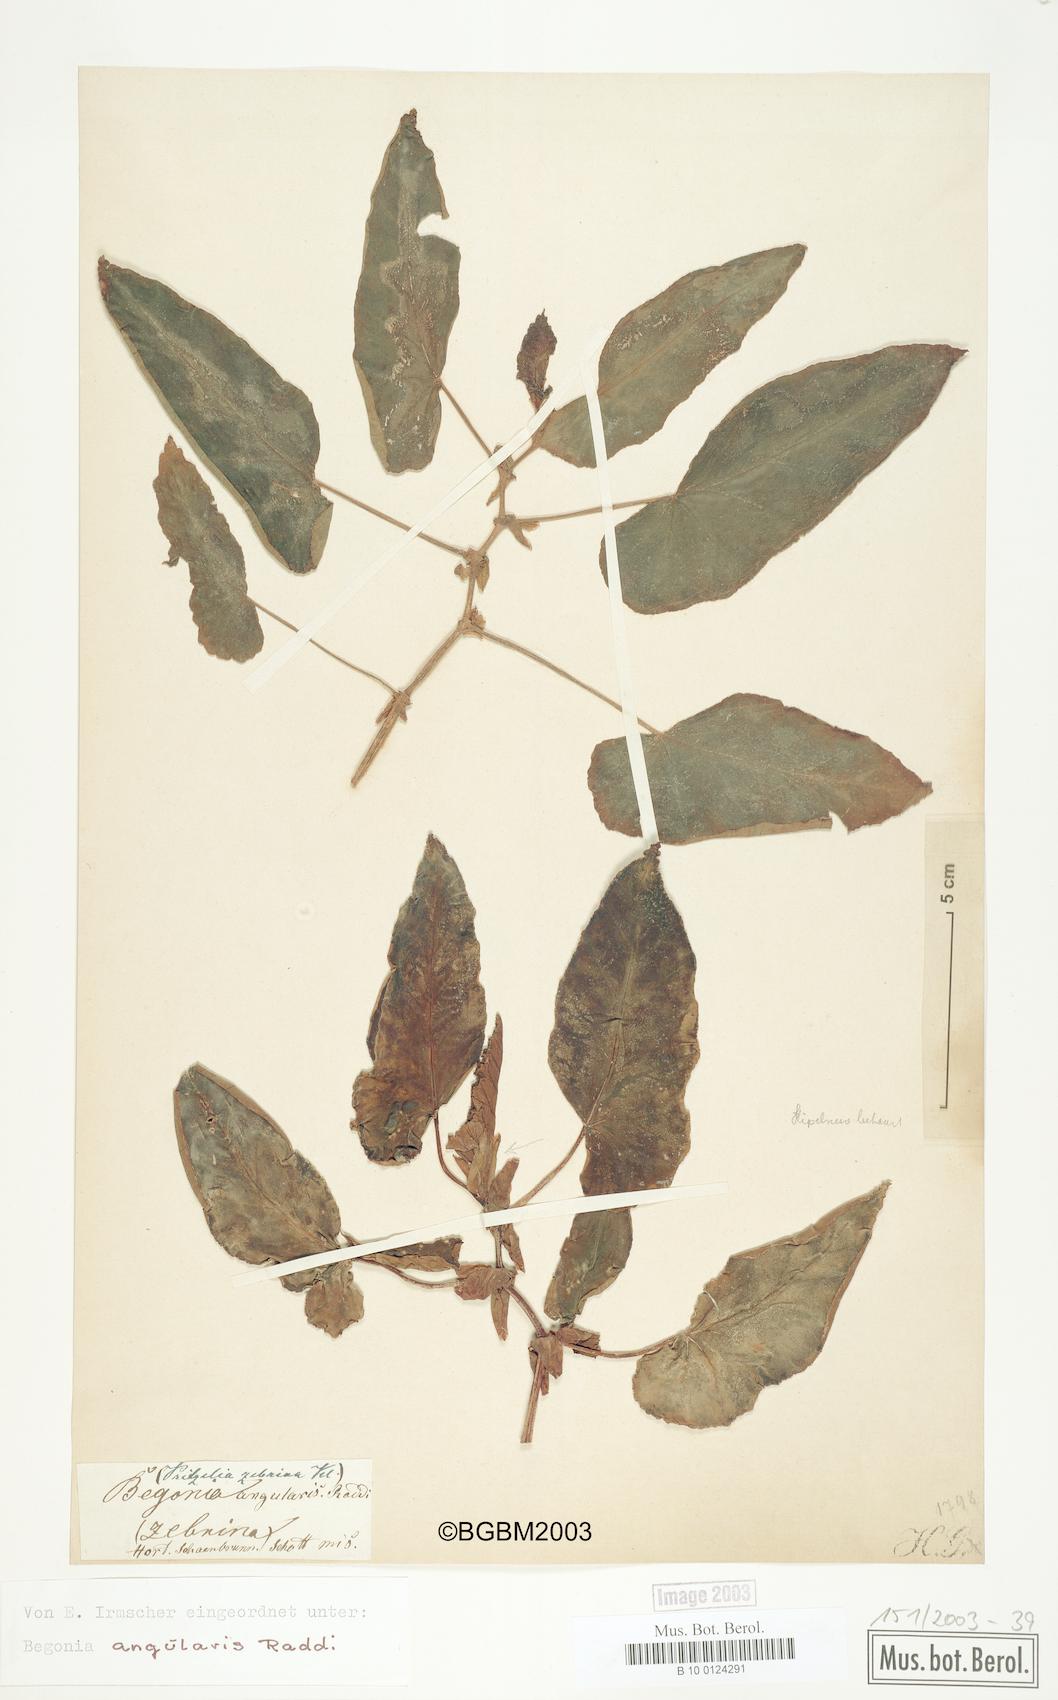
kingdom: Plantae
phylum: Tracheophyta
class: Magnoliopsida
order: Cucurbitales
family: Begoniaceae
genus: Begonia
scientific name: Begonia angularis
